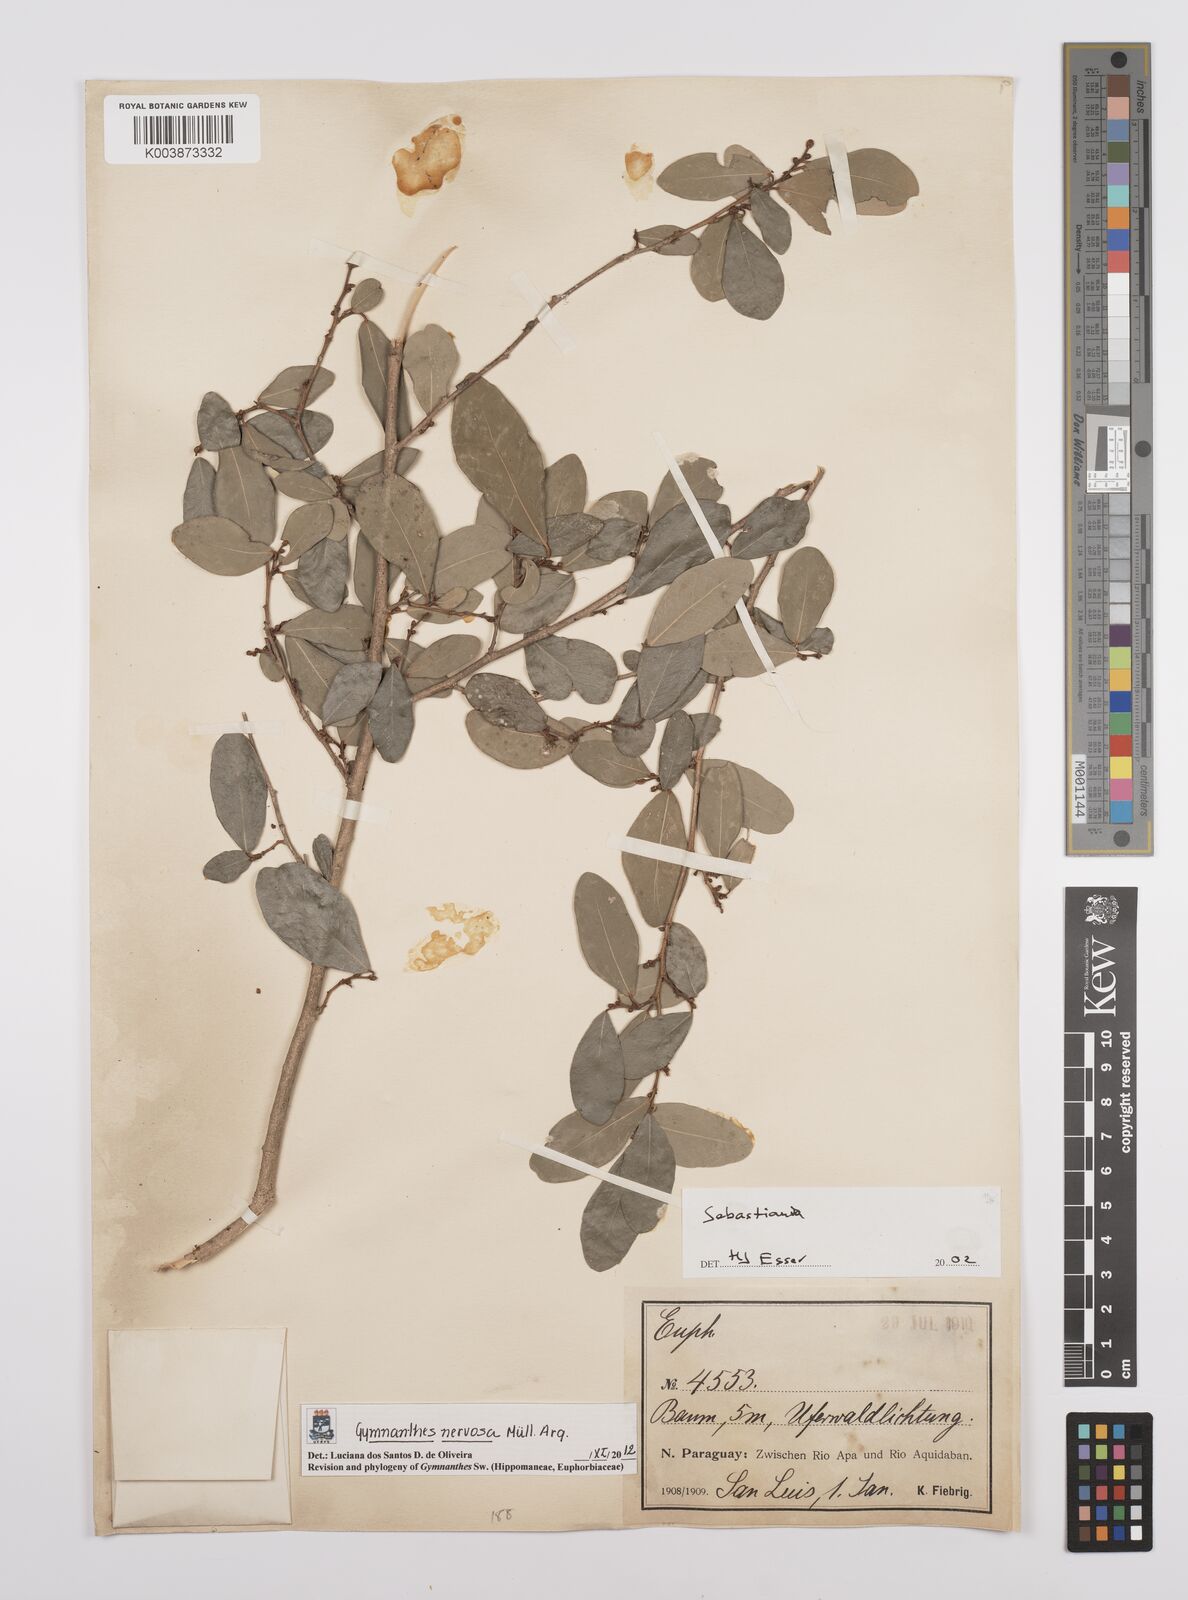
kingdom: Plantae
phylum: Tracheophyta
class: Magnoliopsida
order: Malpighiales
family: Euphorbiaceae
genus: Gymnanthes
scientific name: Gymnanthes nervosa
